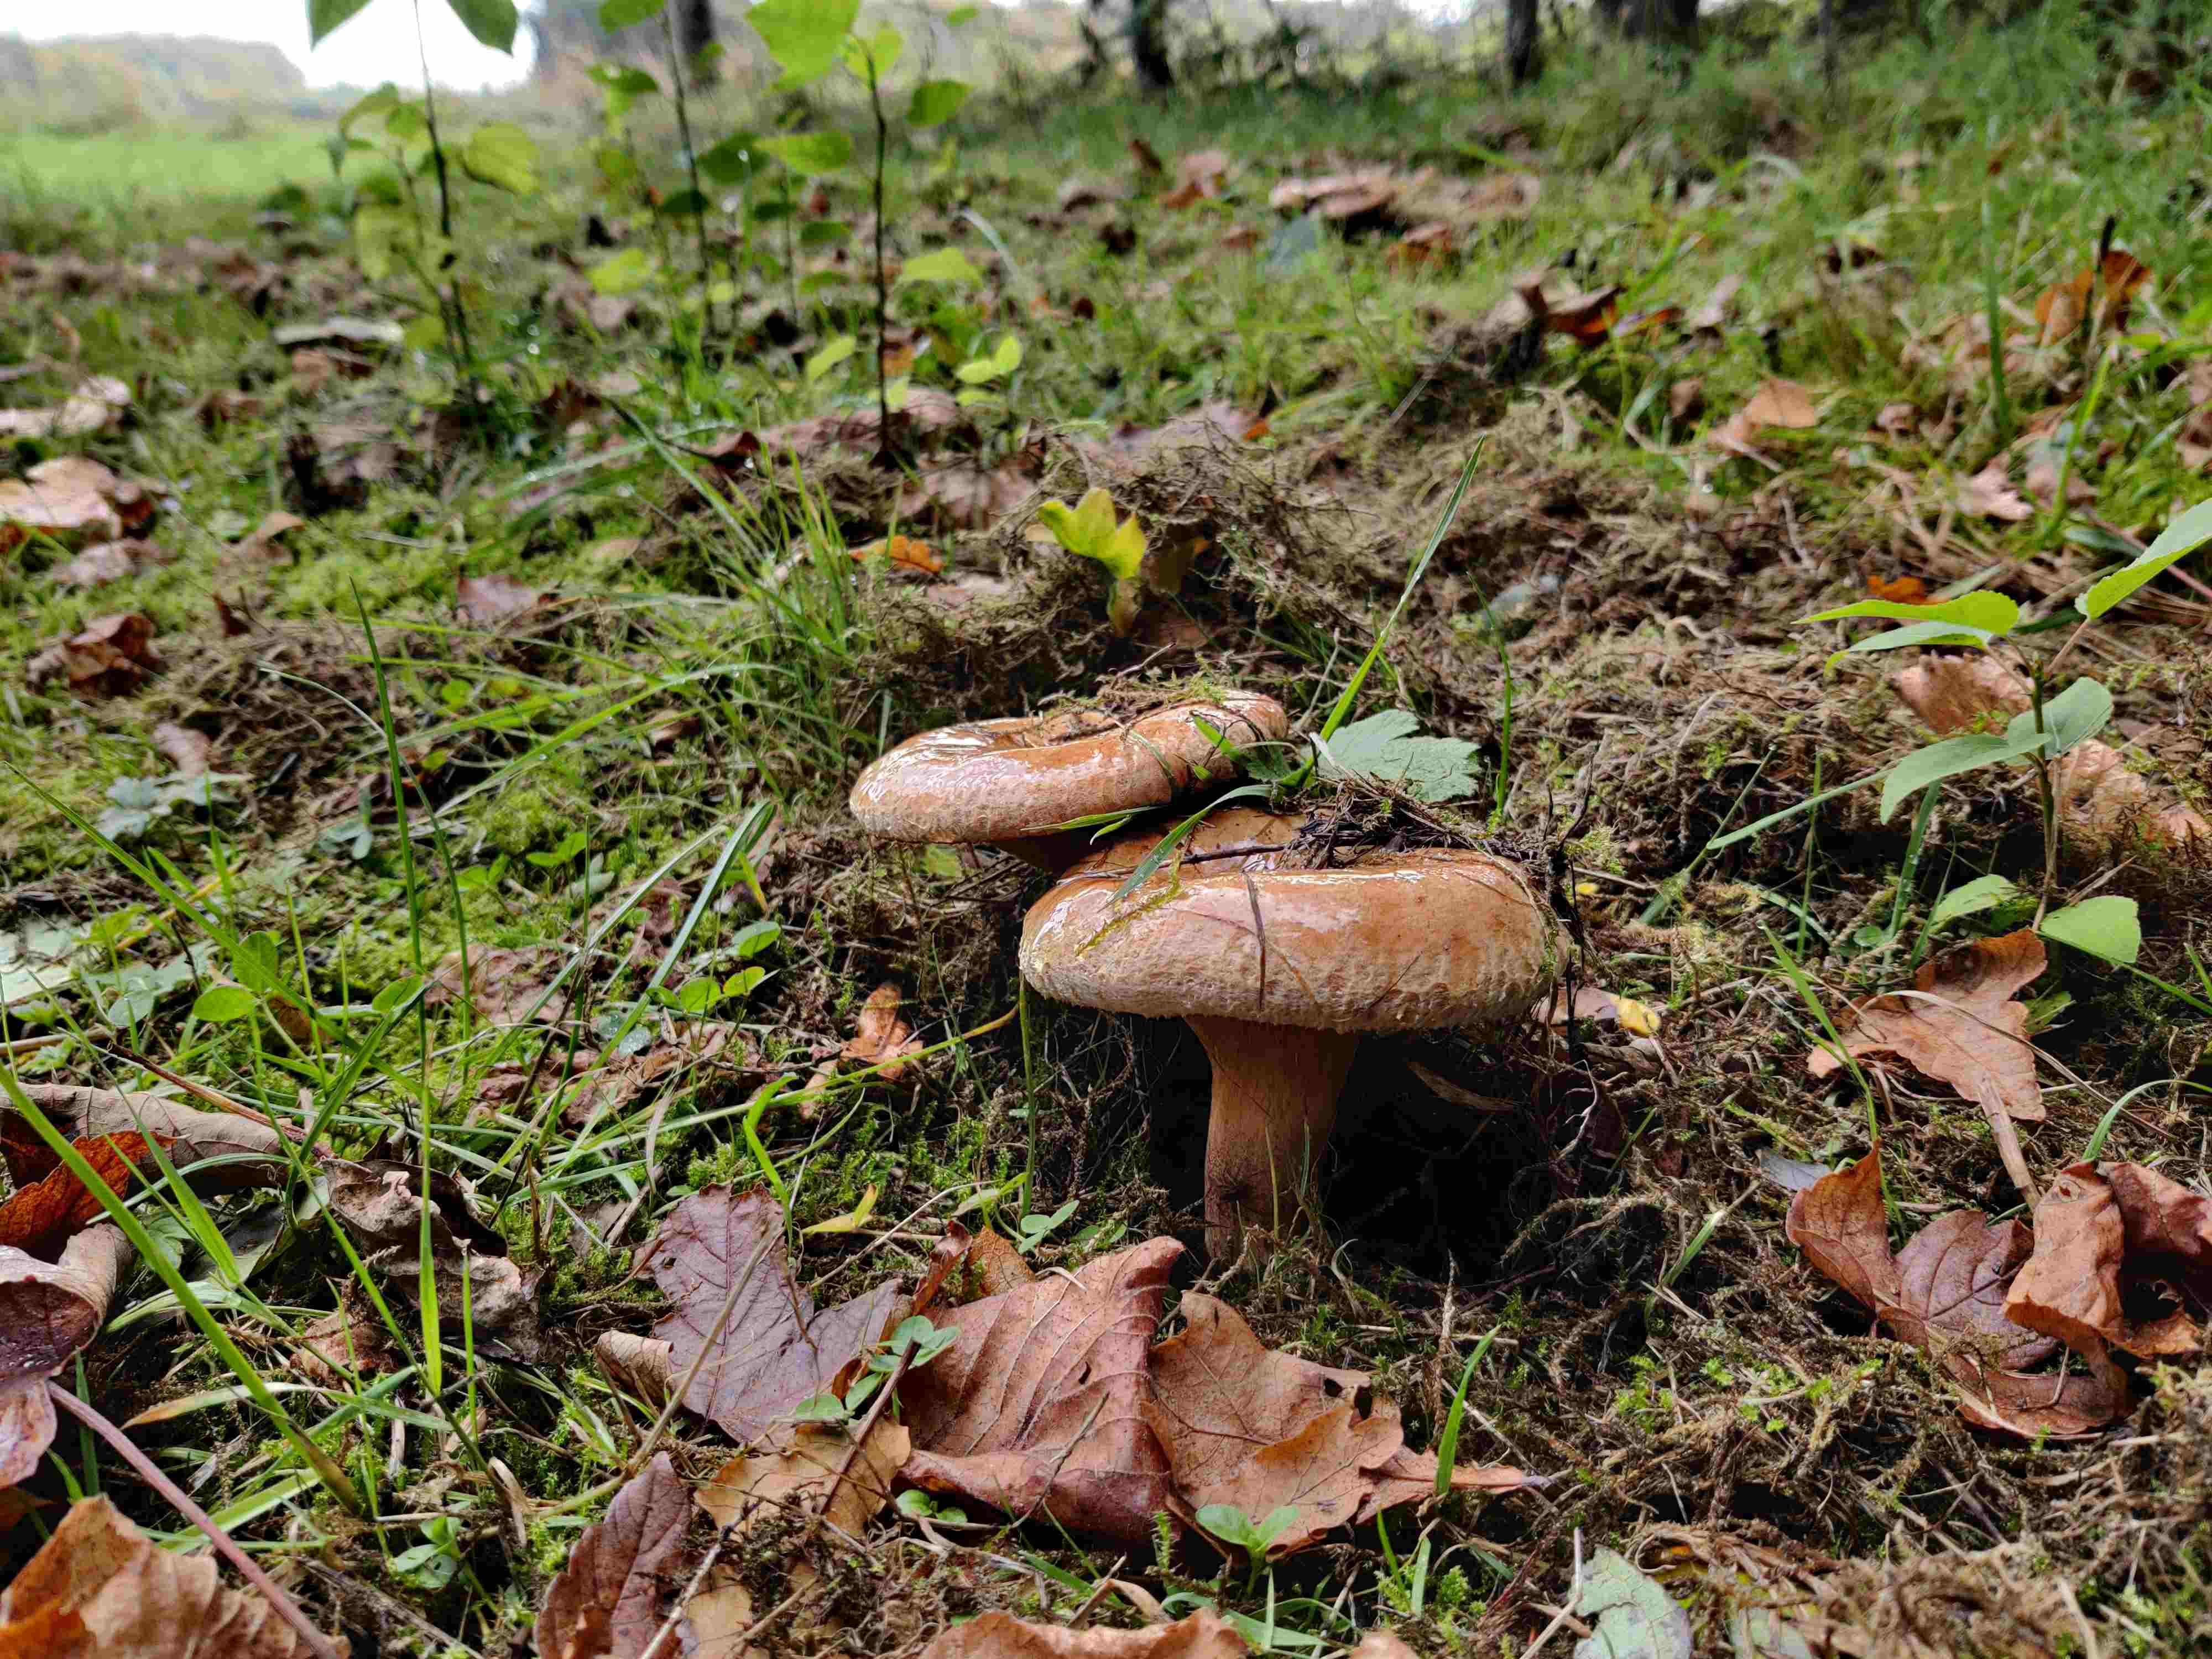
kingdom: Fungi
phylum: Basidiomycota
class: Agaricomycetes
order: Boletales
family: Paxillaceae
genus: Paxillus
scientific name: Paxillus
